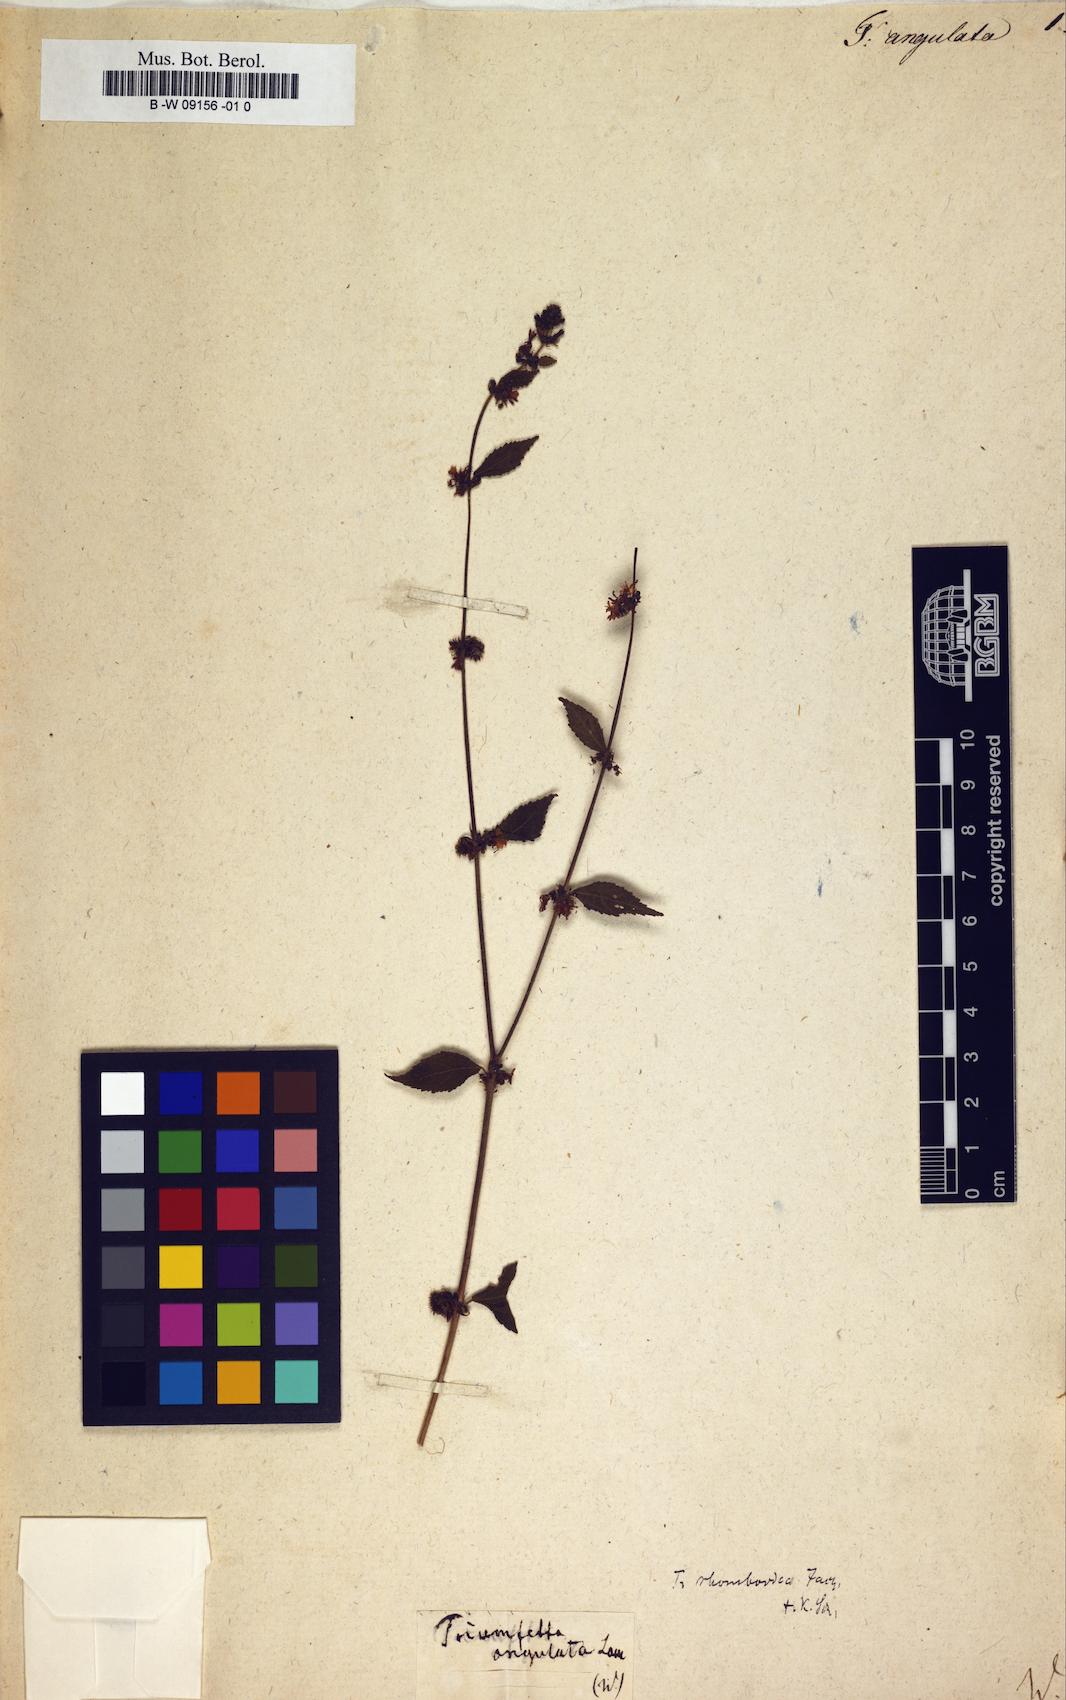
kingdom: Plantae
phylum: Tracheophyta
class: Magnoliopsida
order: Malvales
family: Malvaceae
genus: Triumfetta
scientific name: Triumfetta rhomboidea
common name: Diamond burbark
